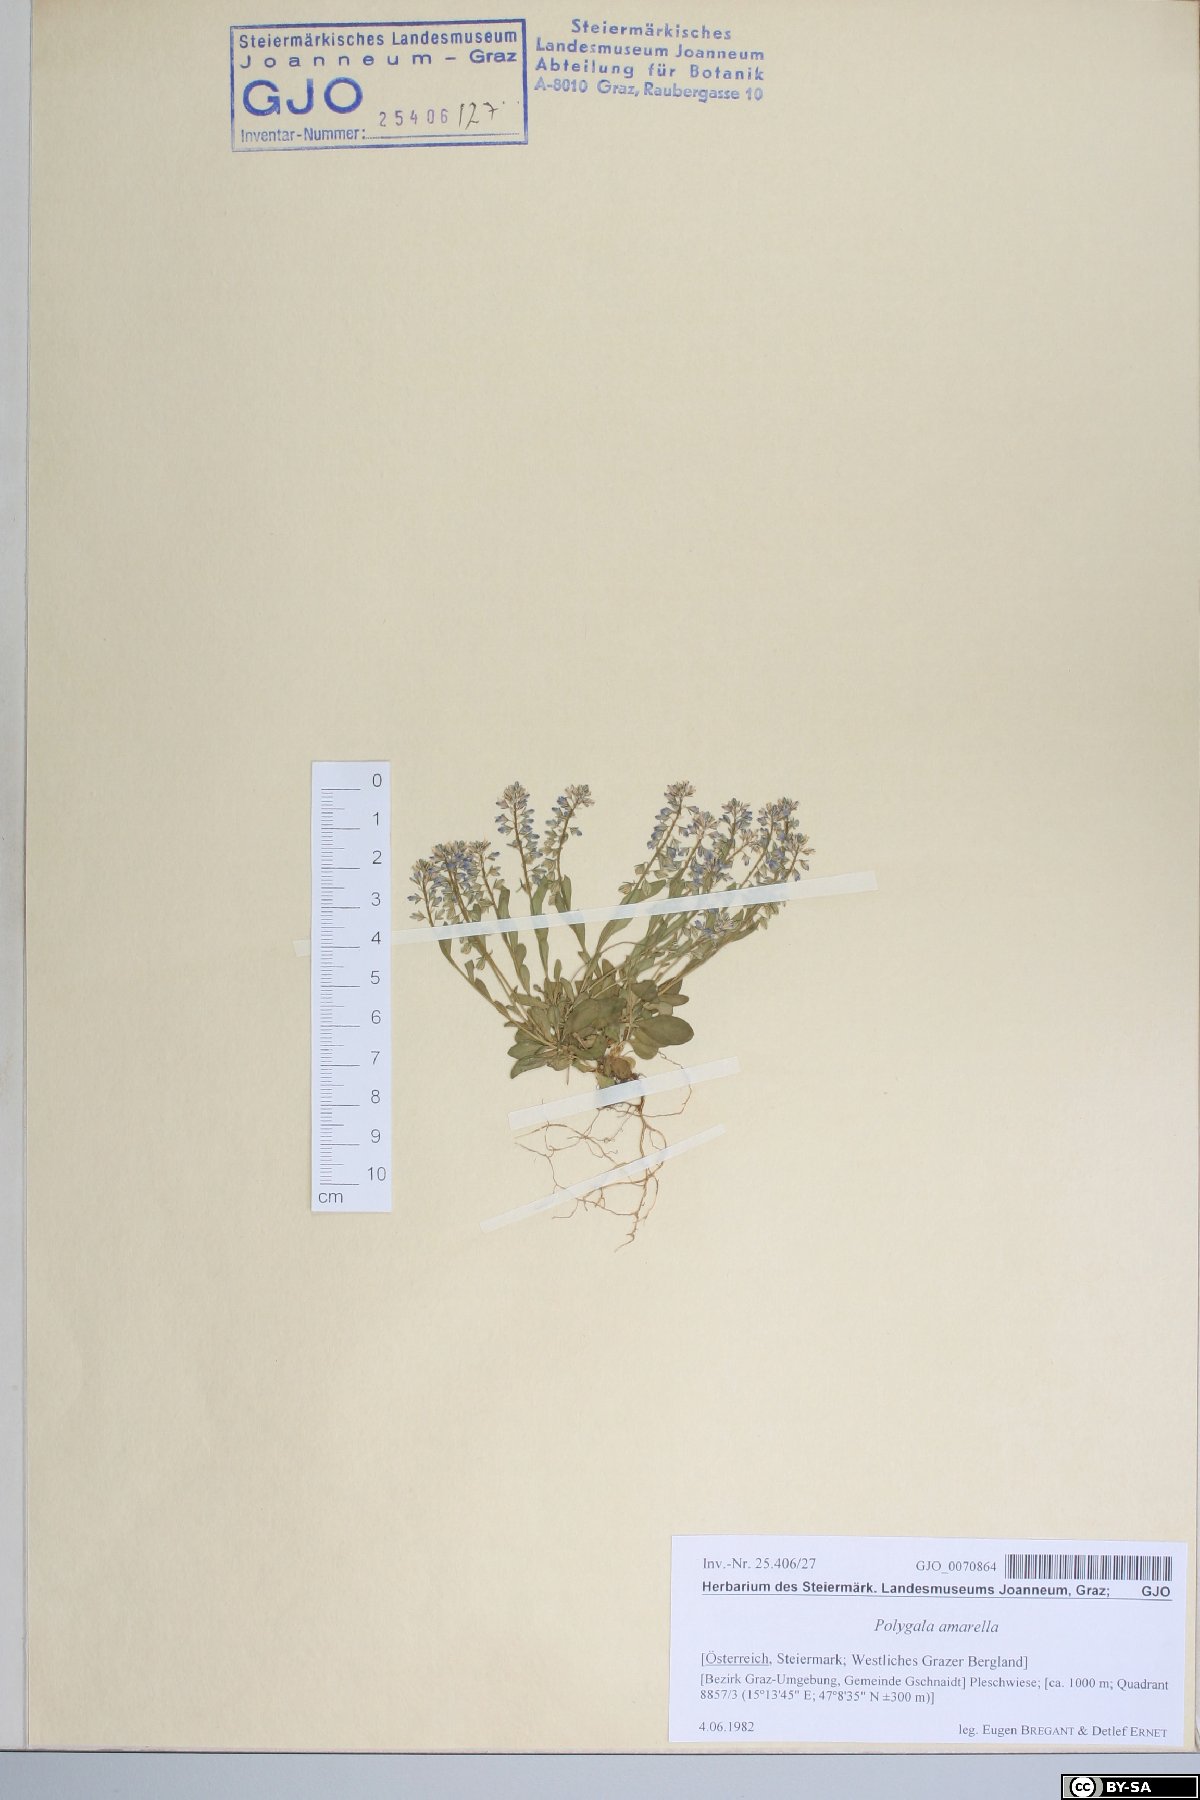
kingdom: Plantae
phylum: Tracheophyta
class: Magnoliopsida
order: Fabales
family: Polygalaceae
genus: Polygala
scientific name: Polygala amarella
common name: Dwarf milkwort
